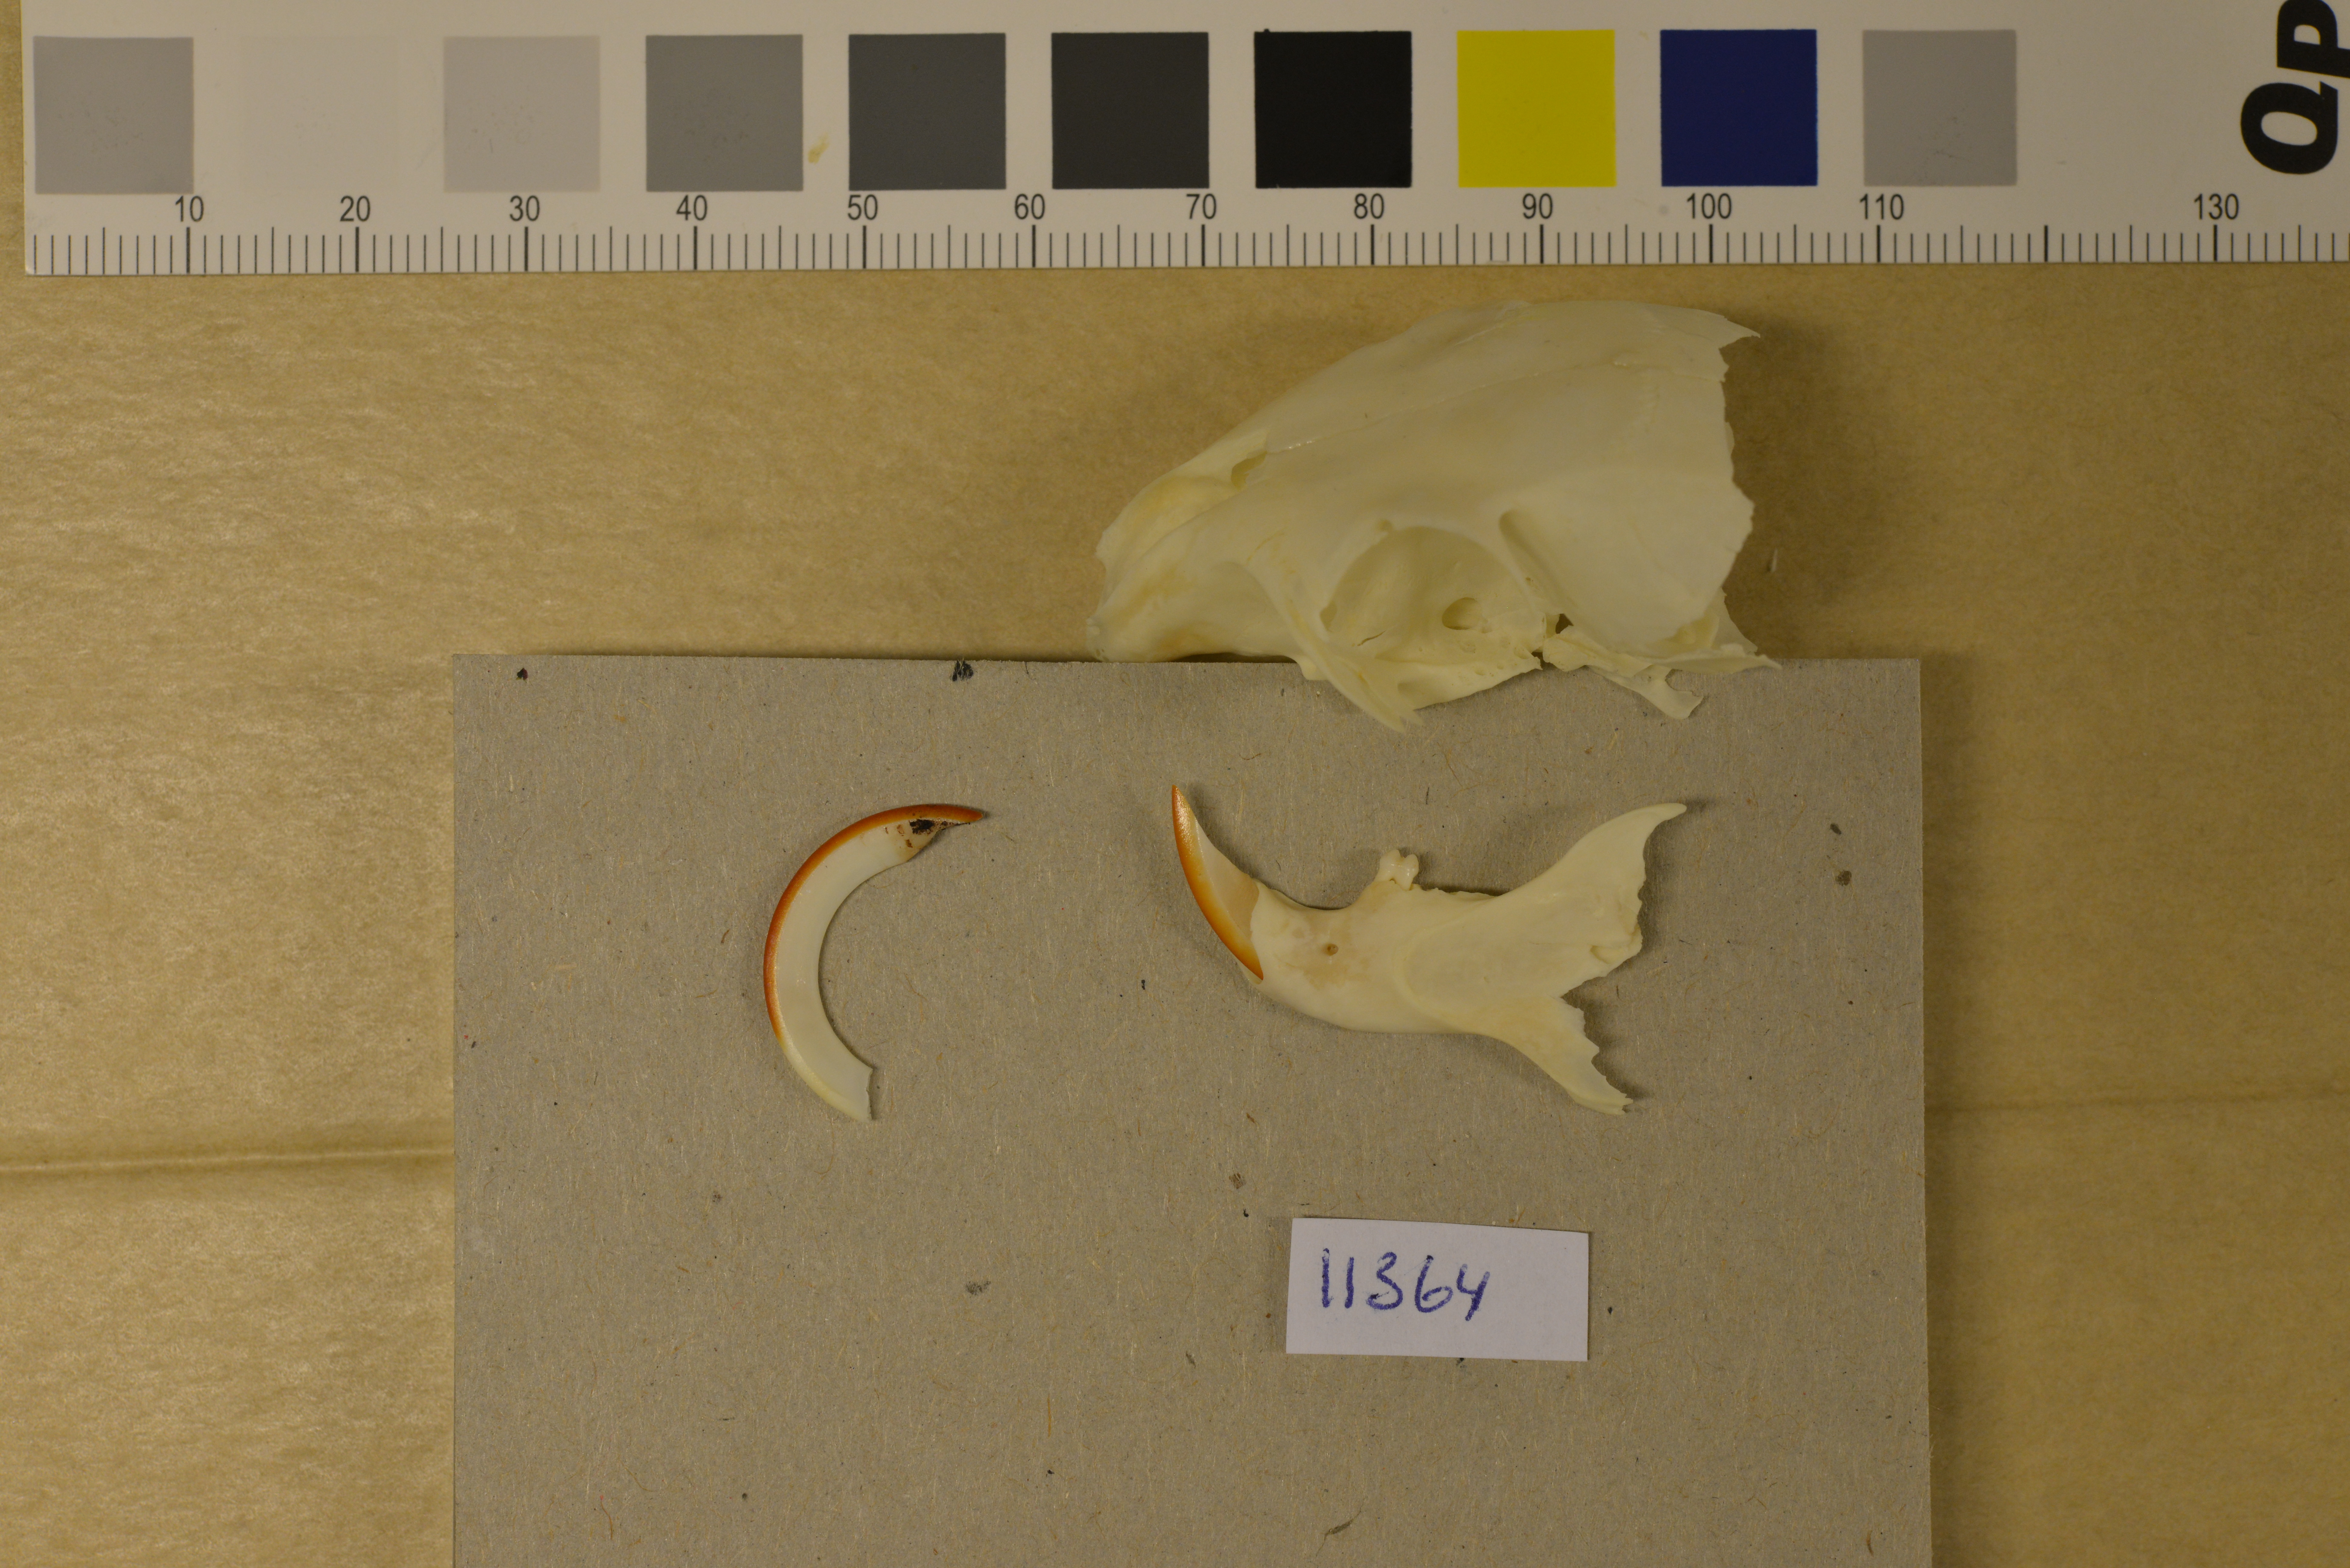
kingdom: Animalia
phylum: Chordata
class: Mammalia
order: Rodentia
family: Sciuridae
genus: Sciurus
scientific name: Sciurus vulgaris
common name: Eurasian red squirrel
